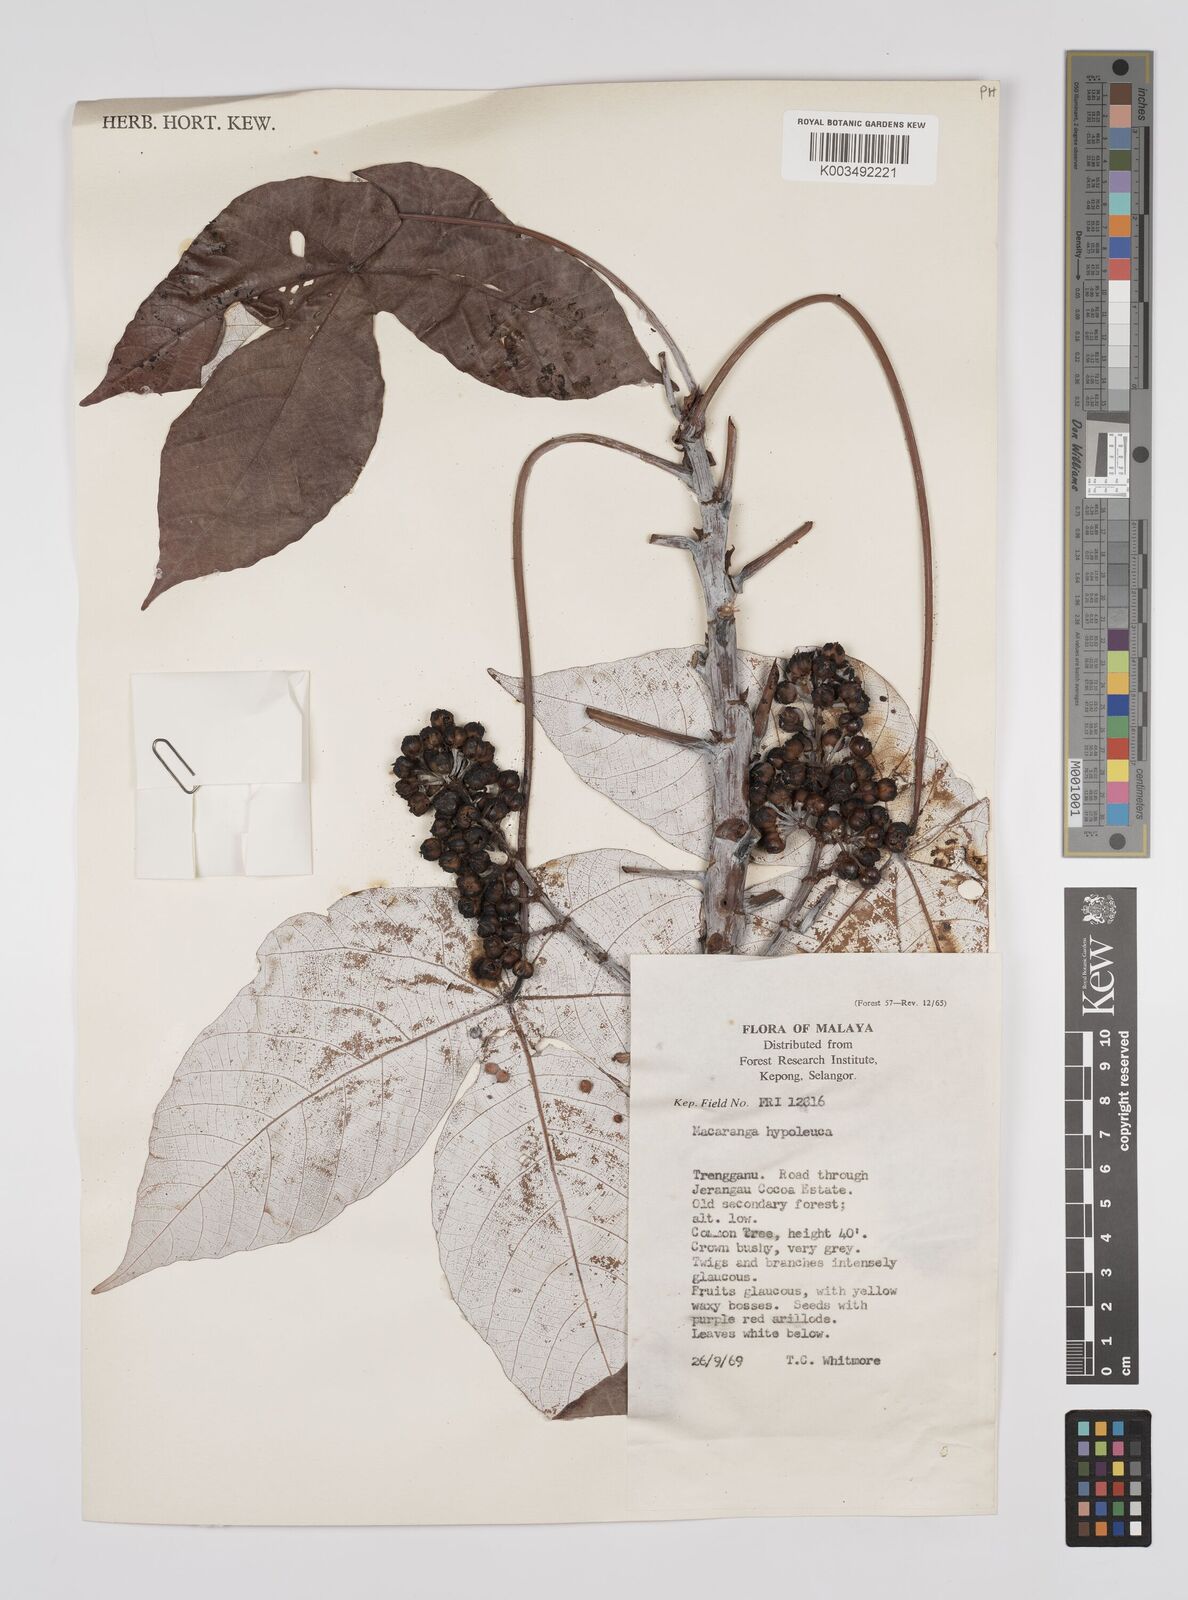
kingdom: Plantae
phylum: Tracheophyta
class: Magnoliopsida
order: Malpighiales
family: Euphorbiaceae
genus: Macaranga
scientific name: Macaranga hypoleuca
